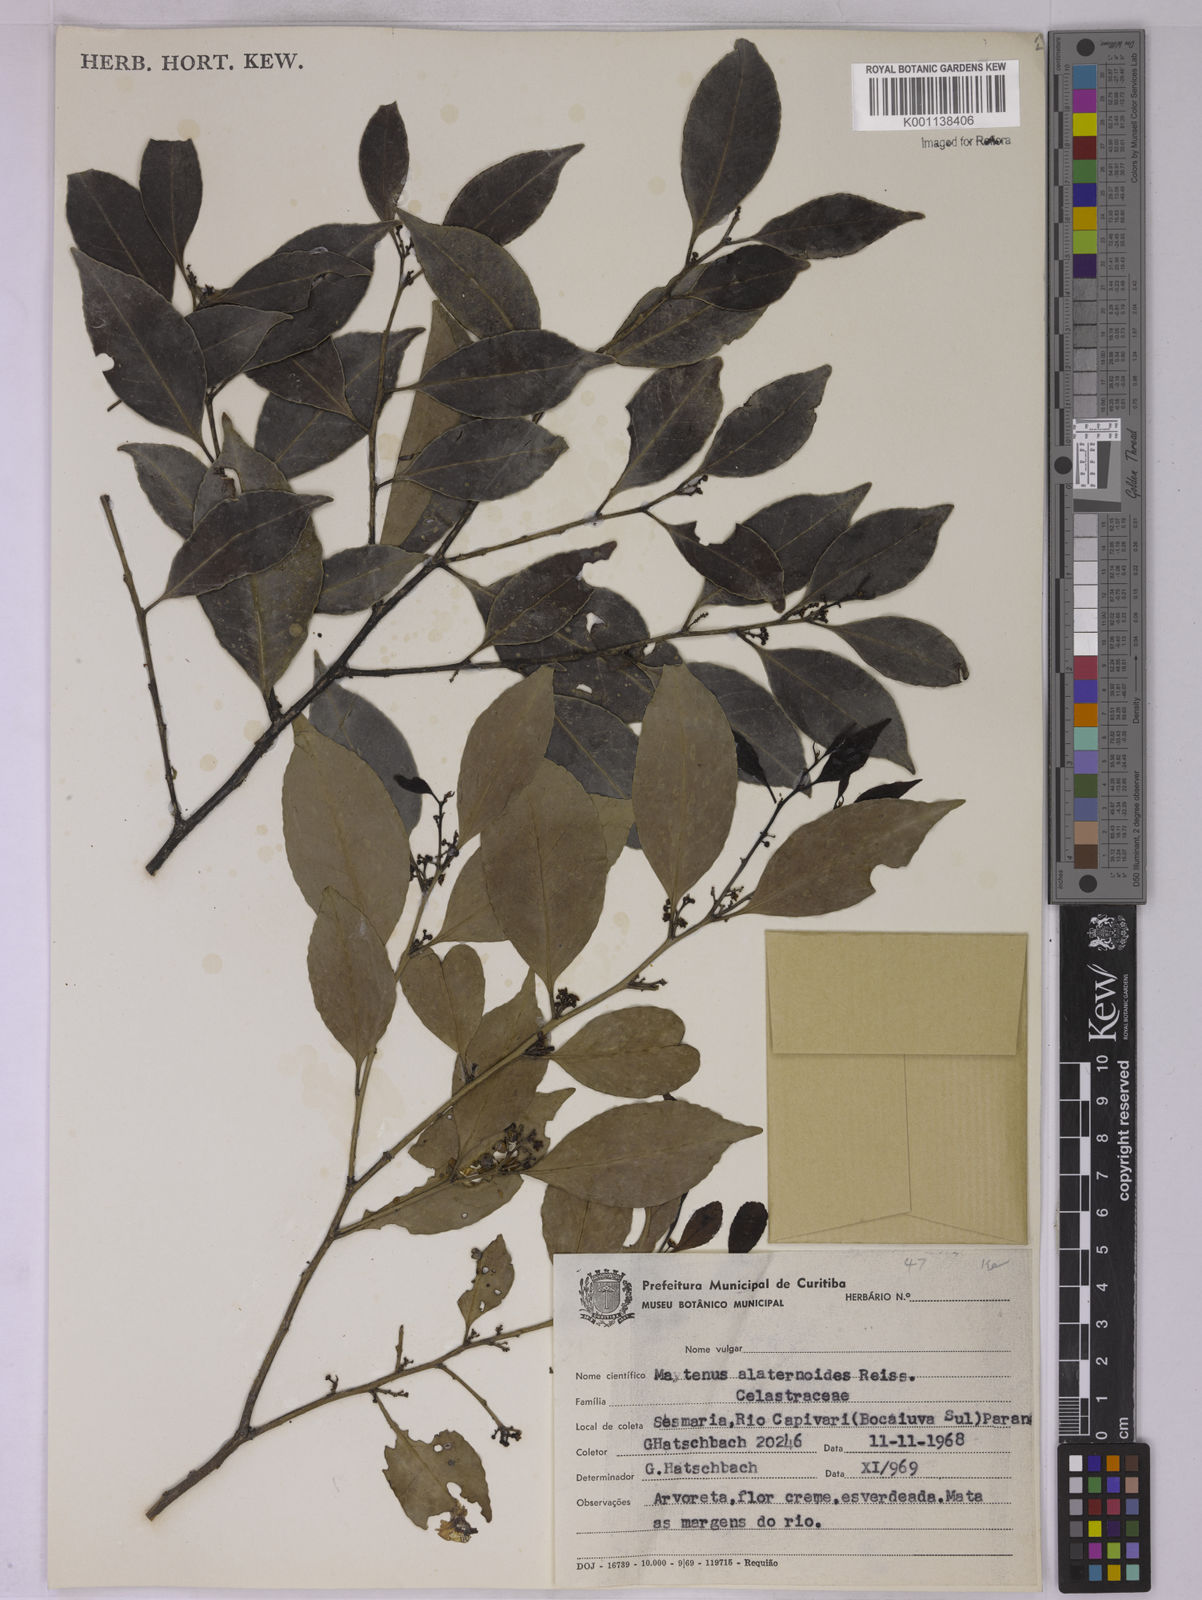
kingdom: Plantae
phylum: Tracheophyta
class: Magnoliopsida
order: Celastrales
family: Celastraceae
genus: Maytenus
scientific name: Maytenus alaternoides
